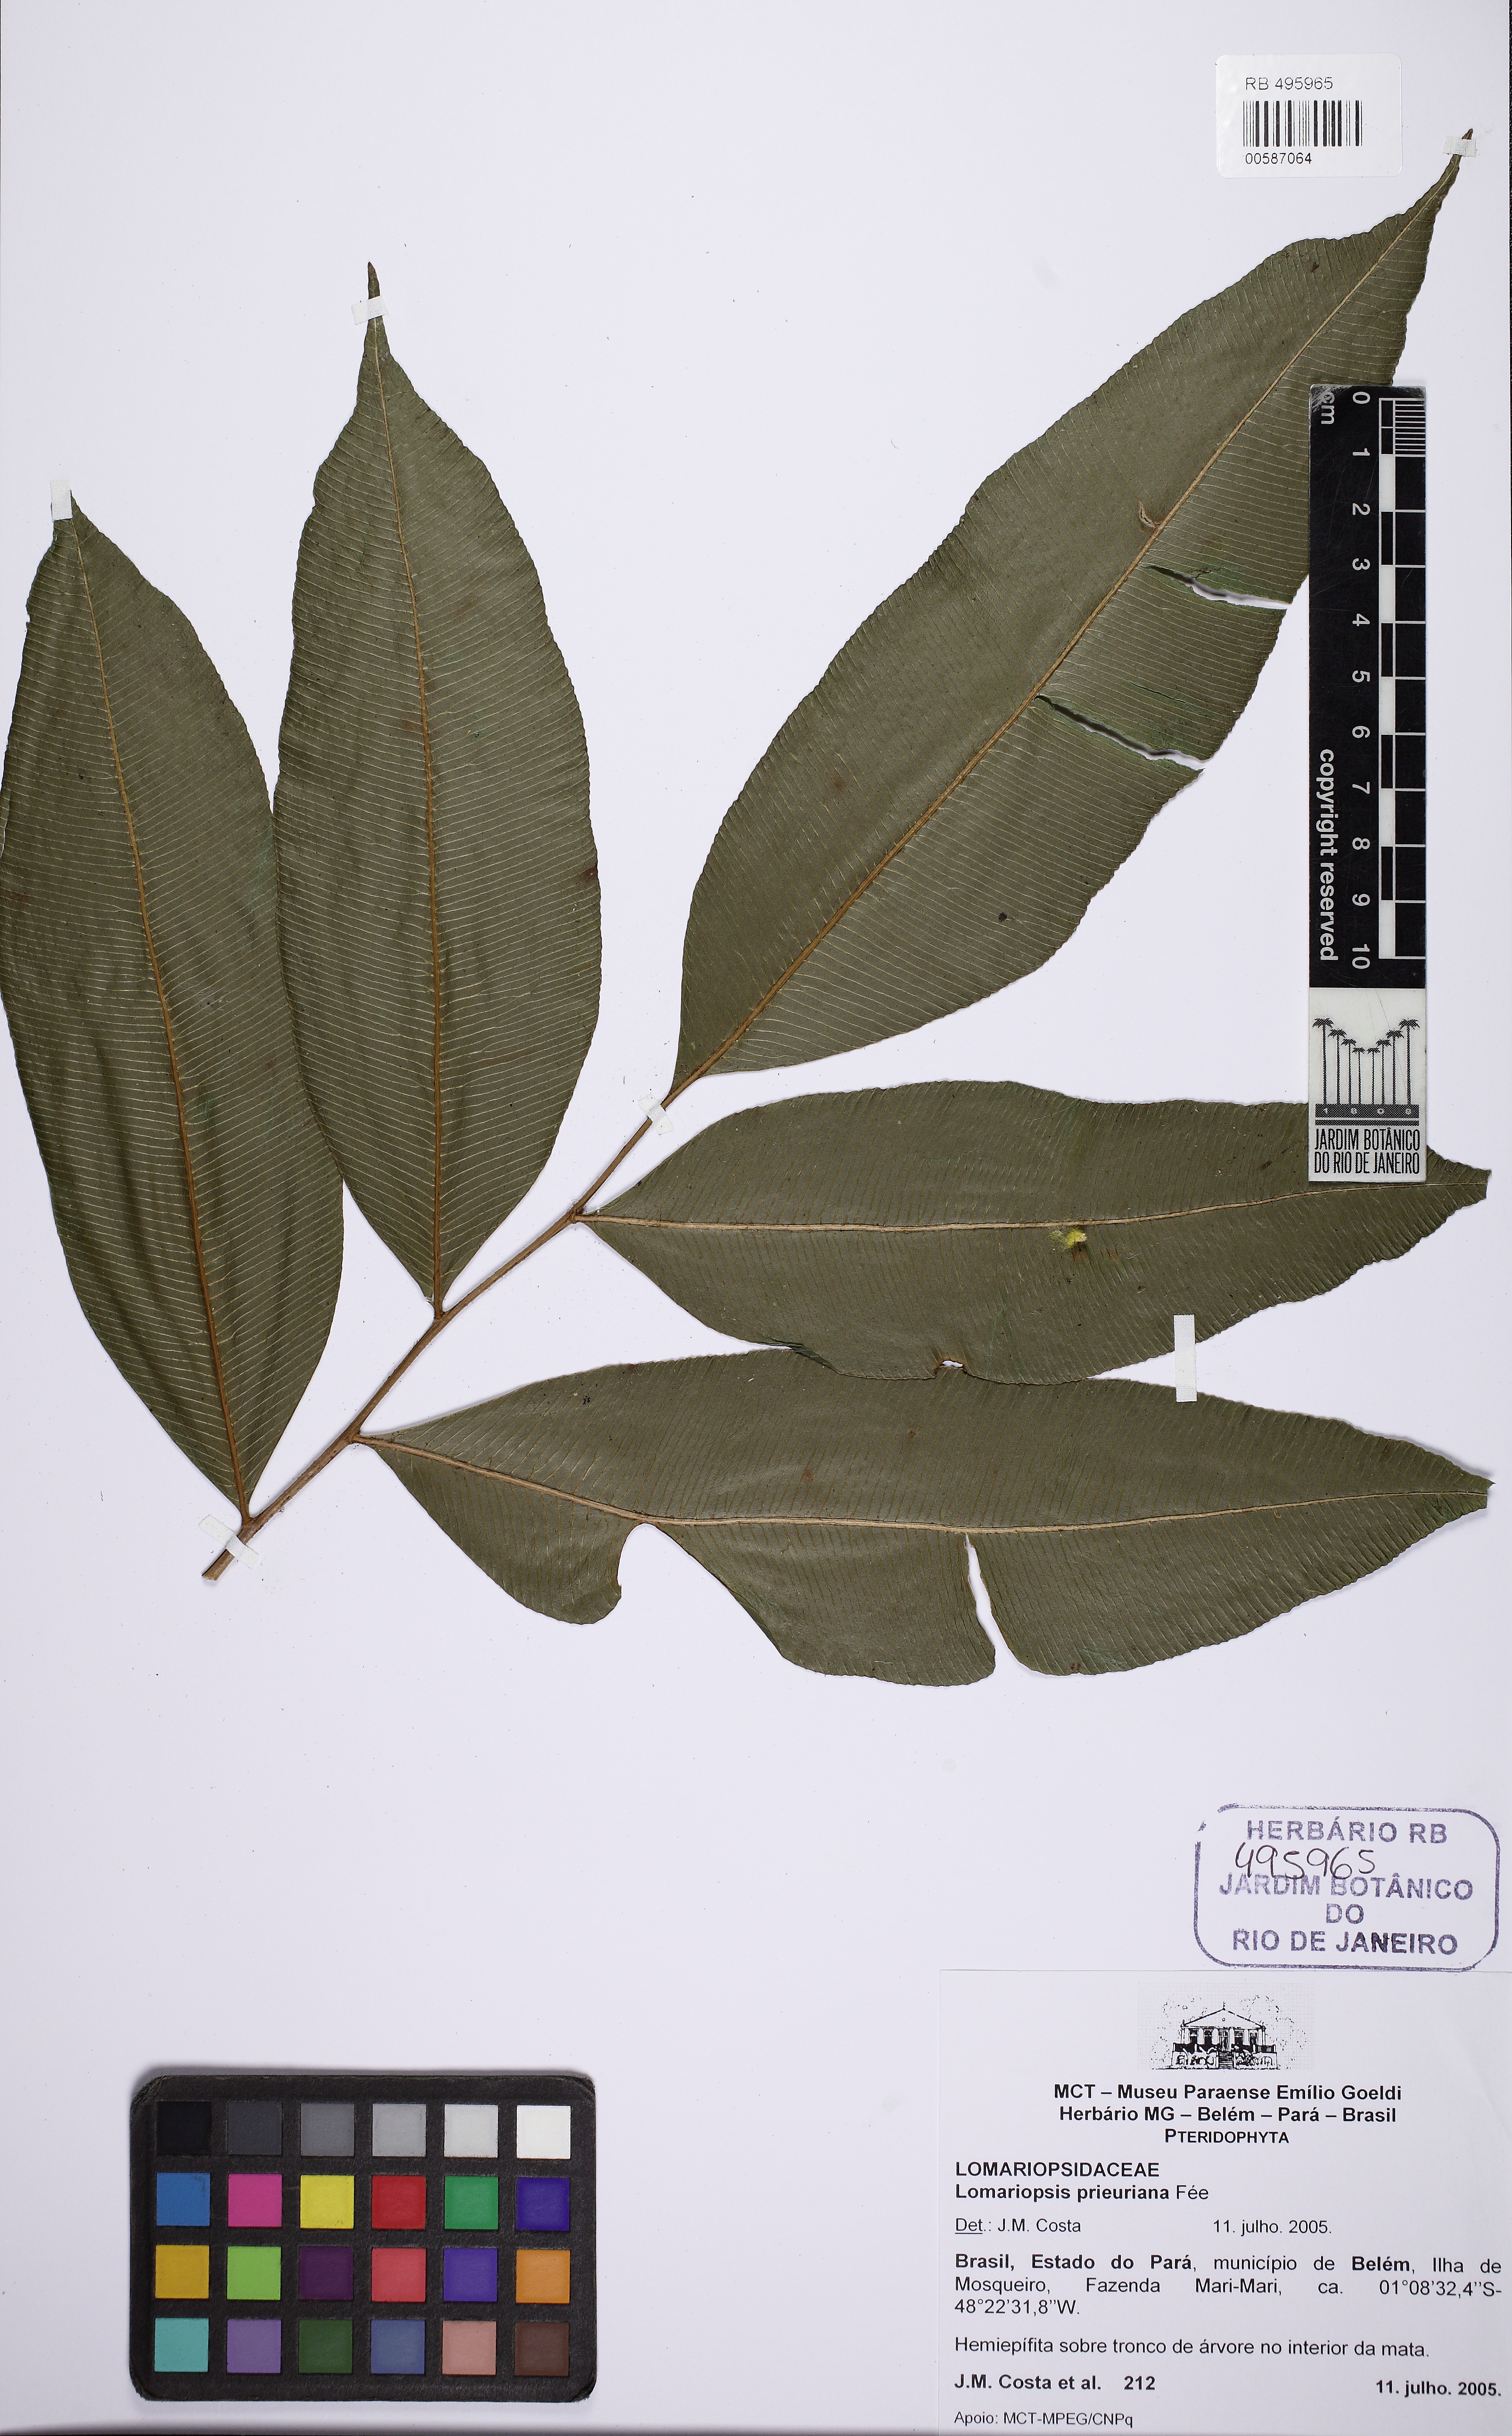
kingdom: Plantae
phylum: Tracheophyta
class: Polypodiopsida
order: Polypodiales
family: Lomariopsidaceae
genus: Lomariopsis
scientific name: Lomariopsis prieuriana
